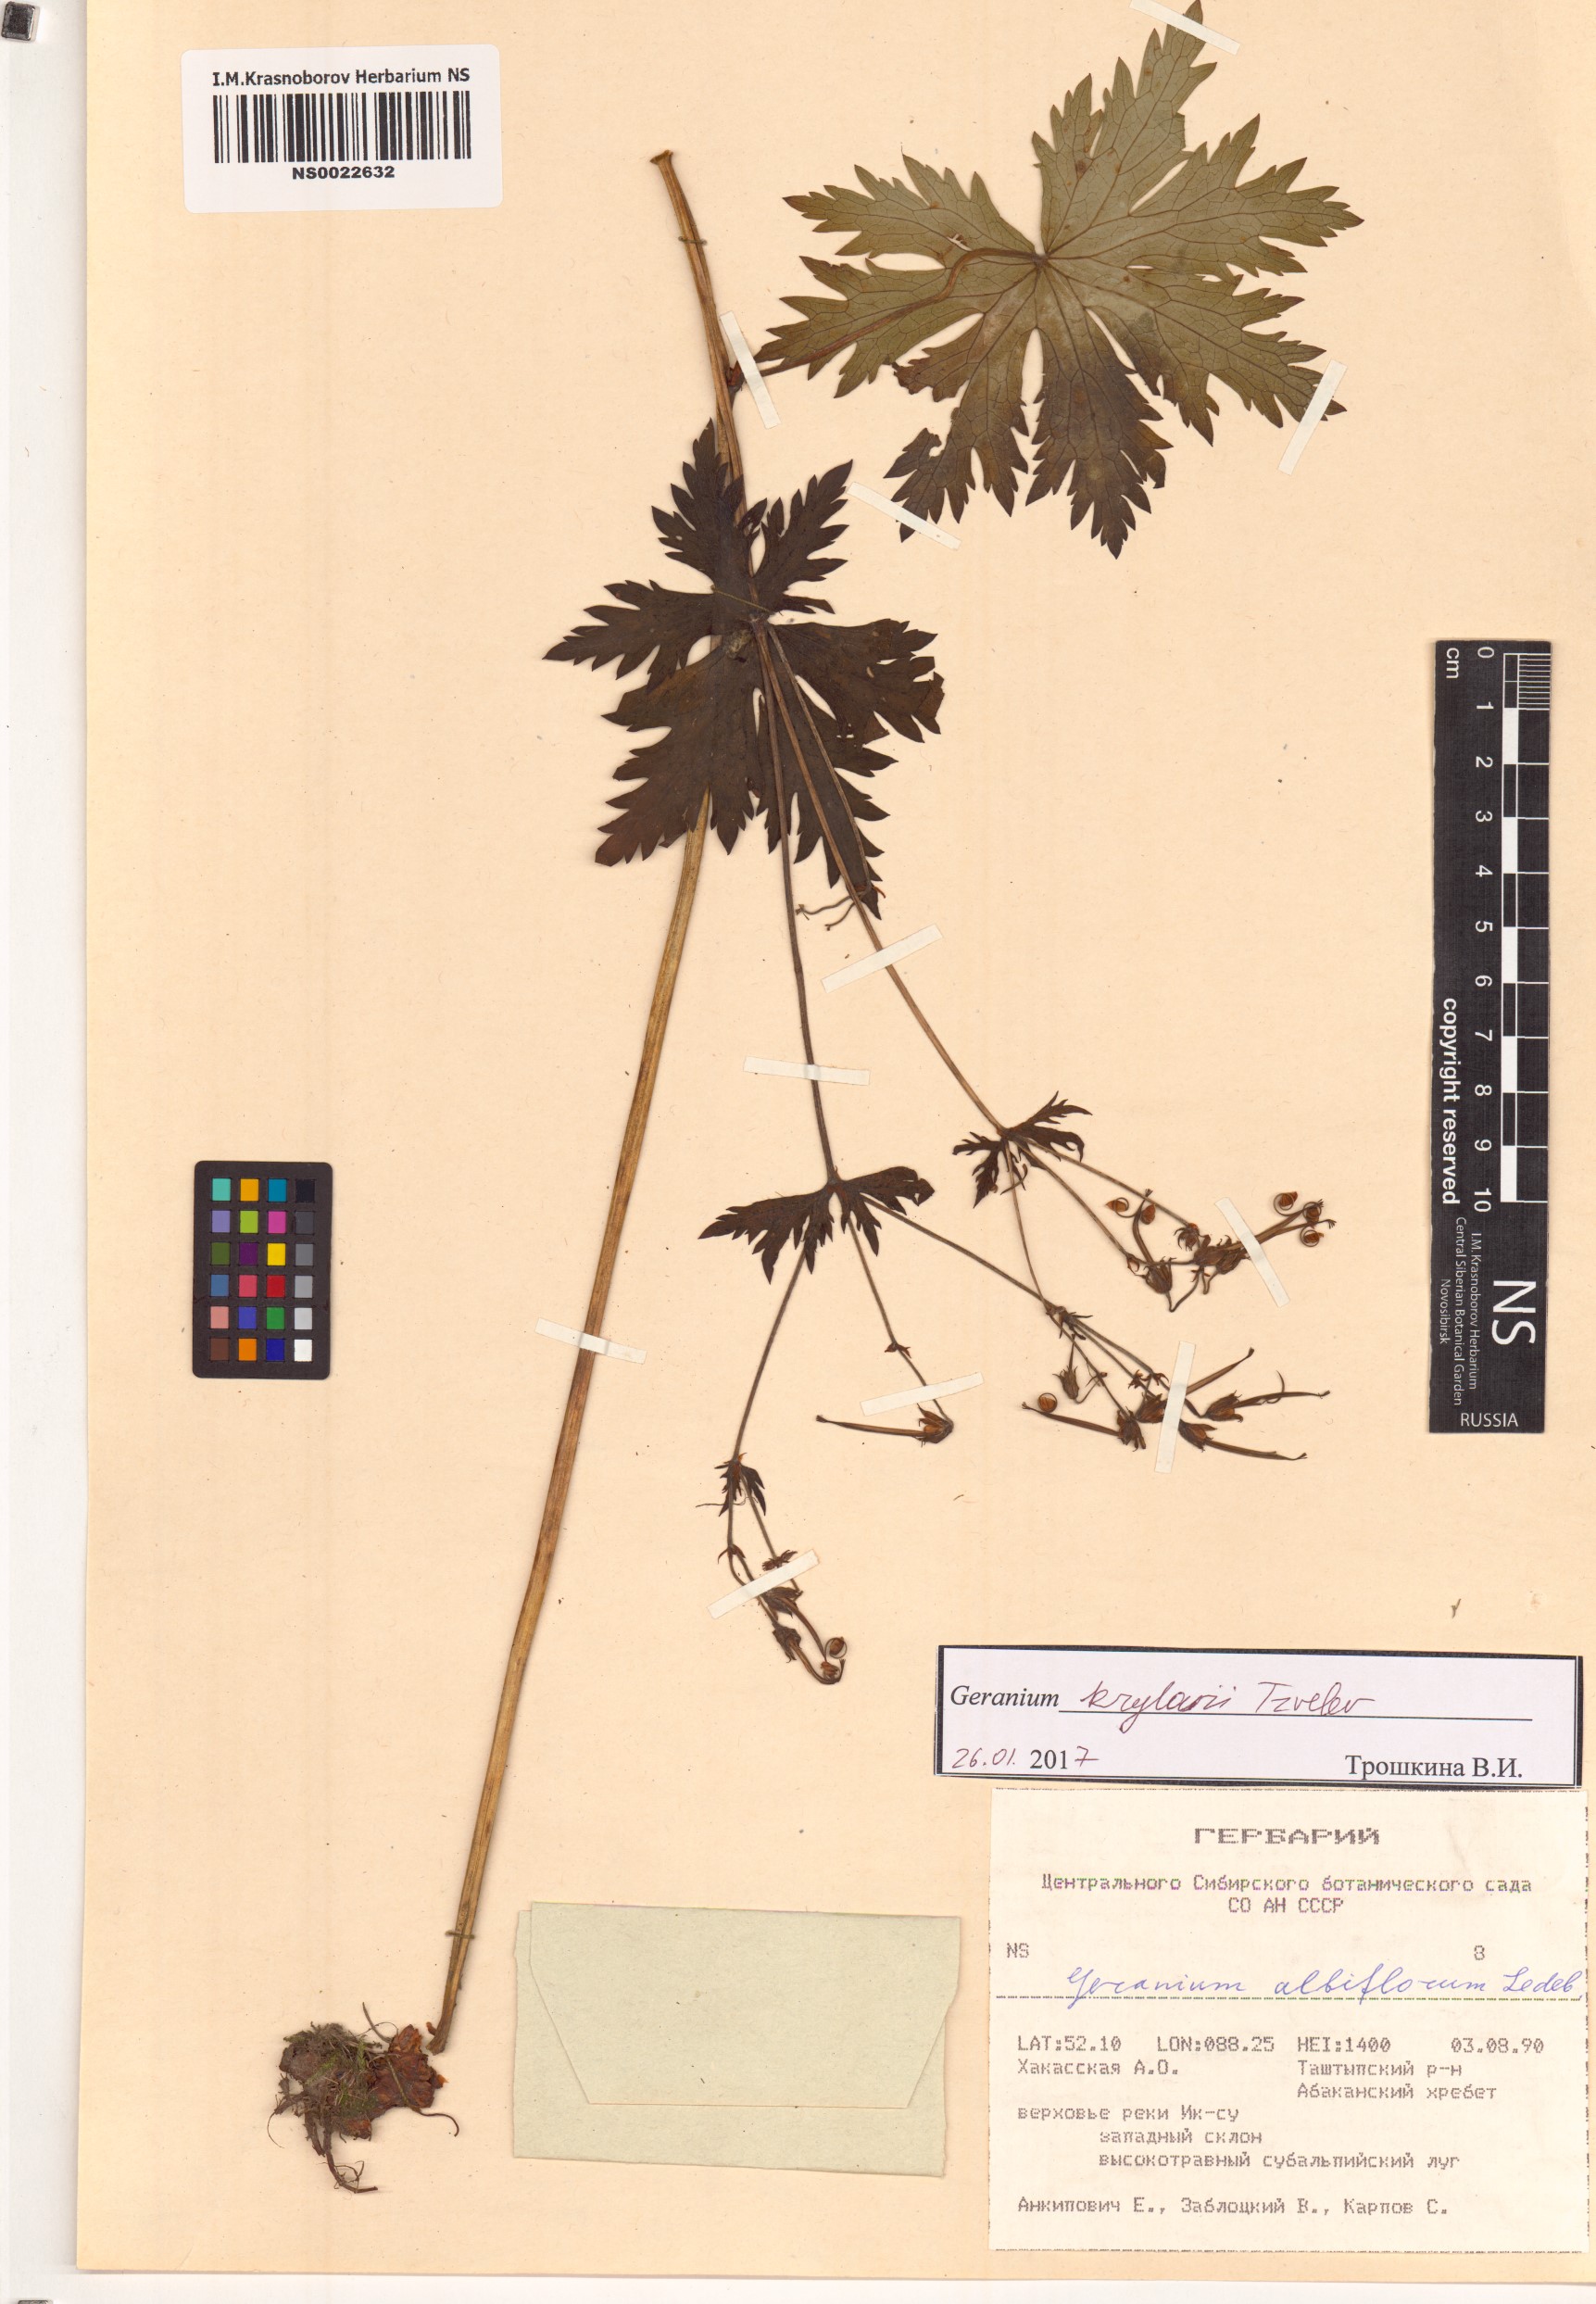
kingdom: Plantae
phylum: Tracheophyta
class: Magnoliopsida
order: Geraniales
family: Geraniaceae
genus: Geranium
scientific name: Geranium sylvaticum
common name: Wood crane's-bill
